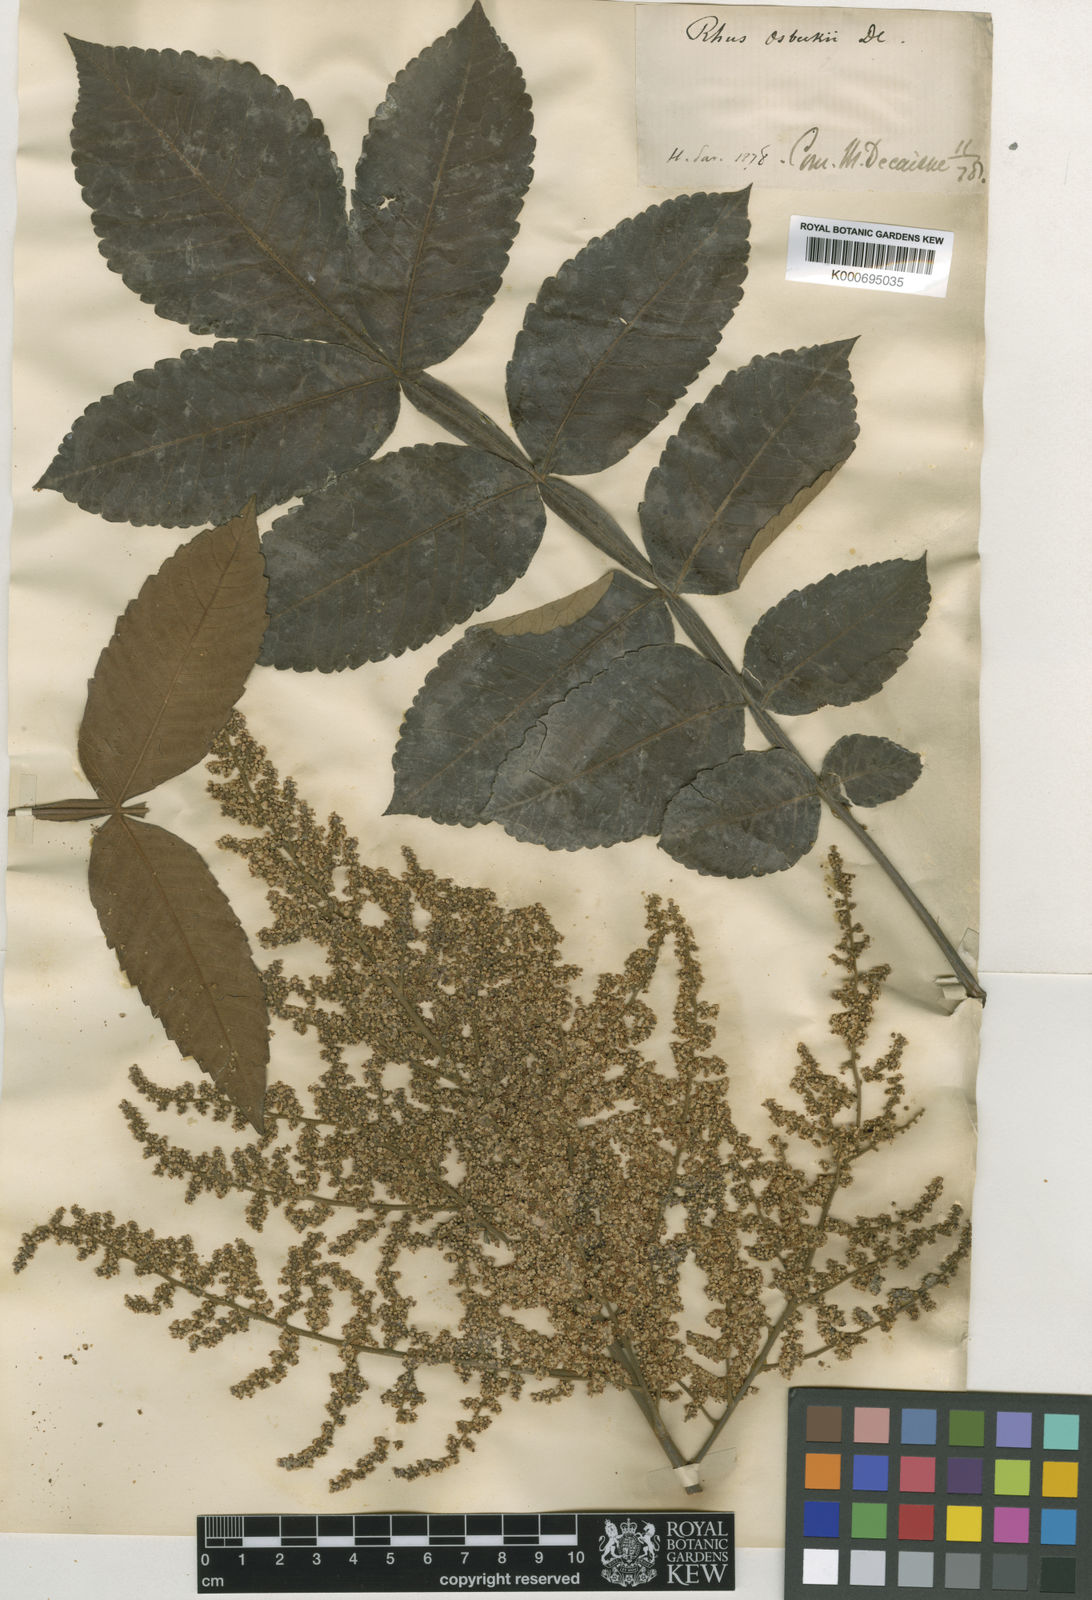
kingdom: Plantae
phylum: Tracheophyta
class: Magnoliopsida
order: Sapindales
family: Anacardiaceae
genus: Rhus
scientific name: Rhus
